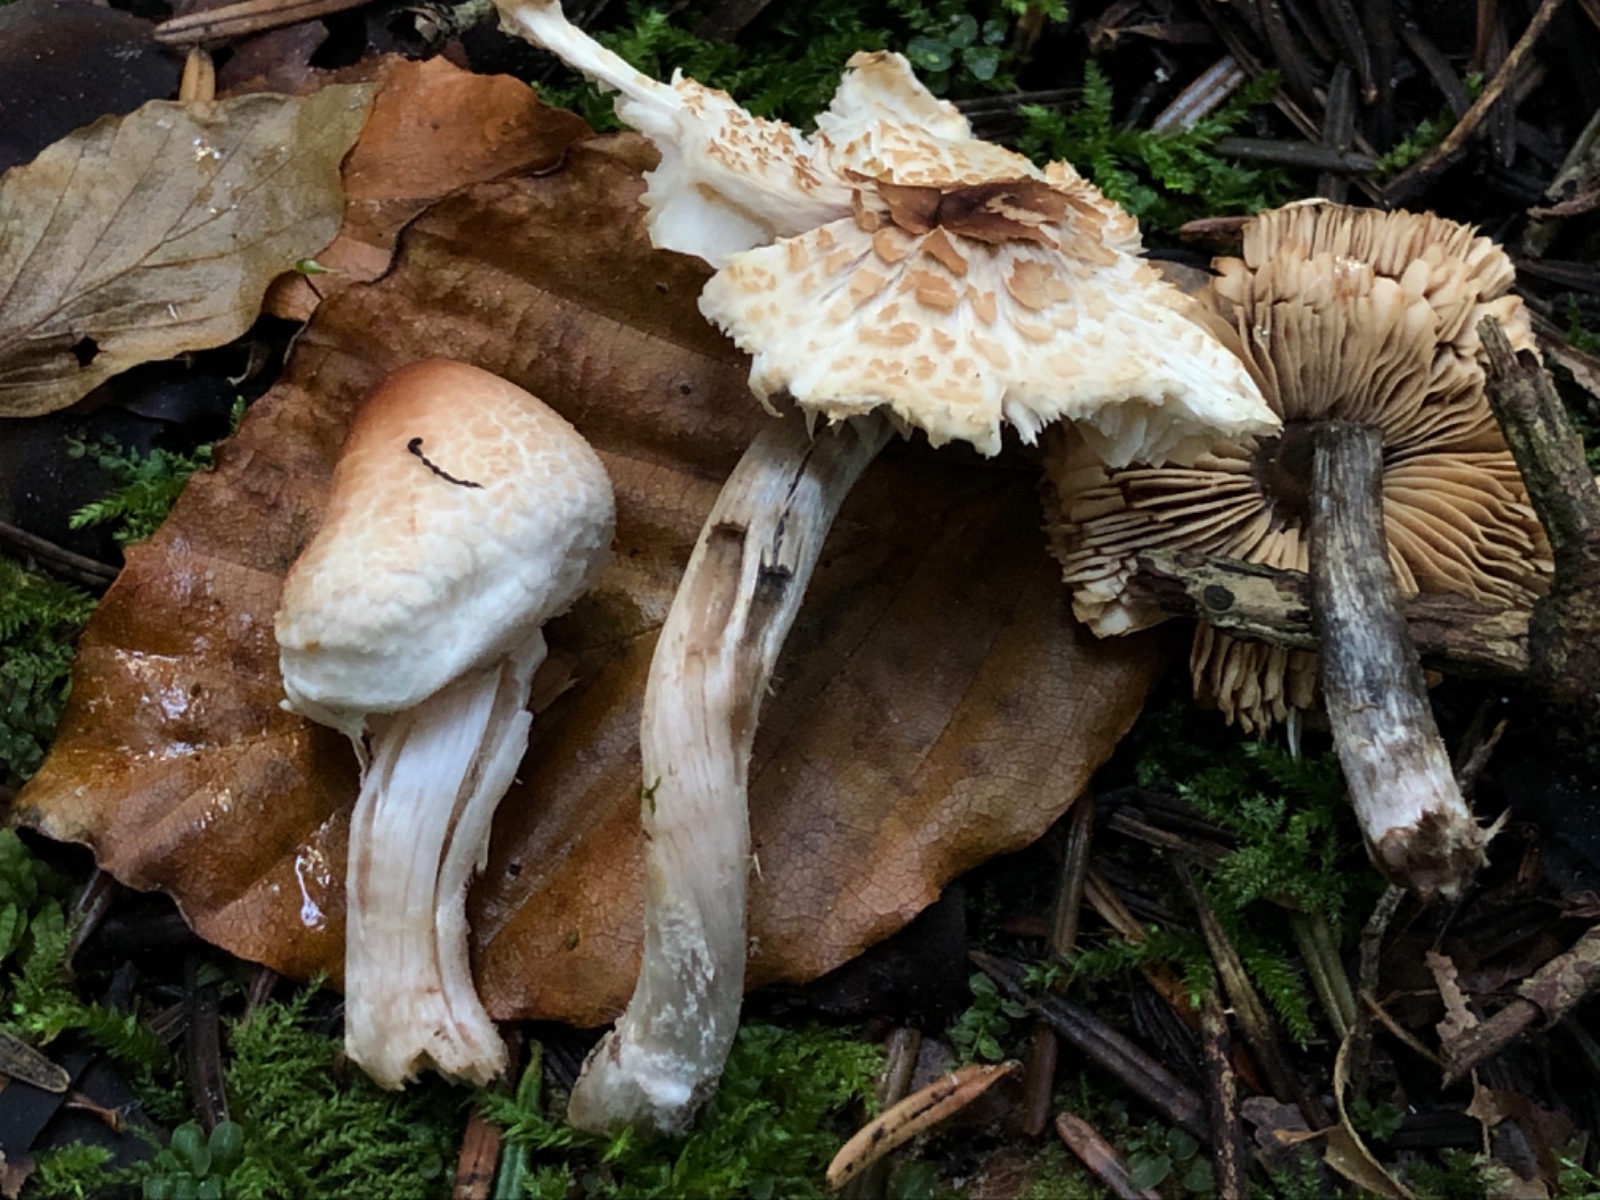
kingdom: Fungi
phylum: Basidiomycota
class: Agaricomycetes
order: Agaricales
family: Agaricaceae
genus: Lepiota
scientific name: Lepiota cristata
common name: stinkende parasolhat
